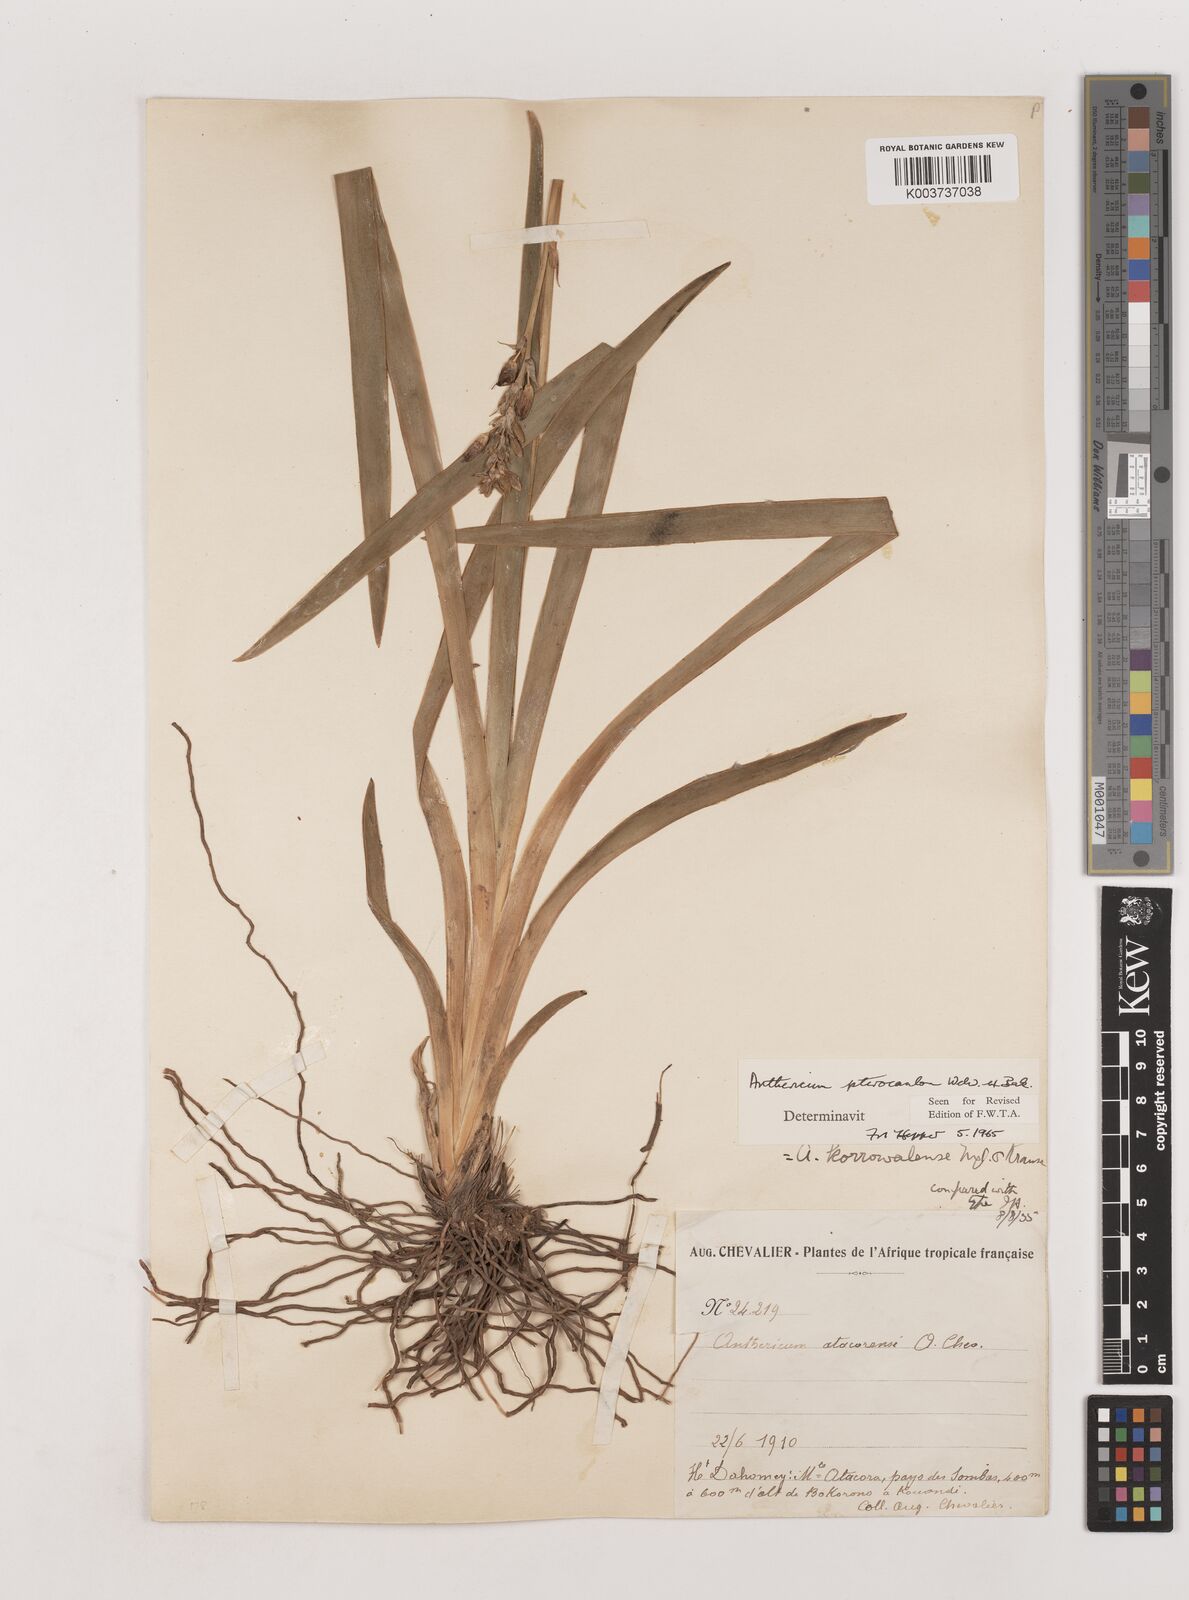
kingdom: Plantae
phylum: Tracheophyta
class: Liliopsida
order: Asparagales
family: Asparagaceae
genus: Chlorophytum
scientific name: Chlorophytum cameronii
